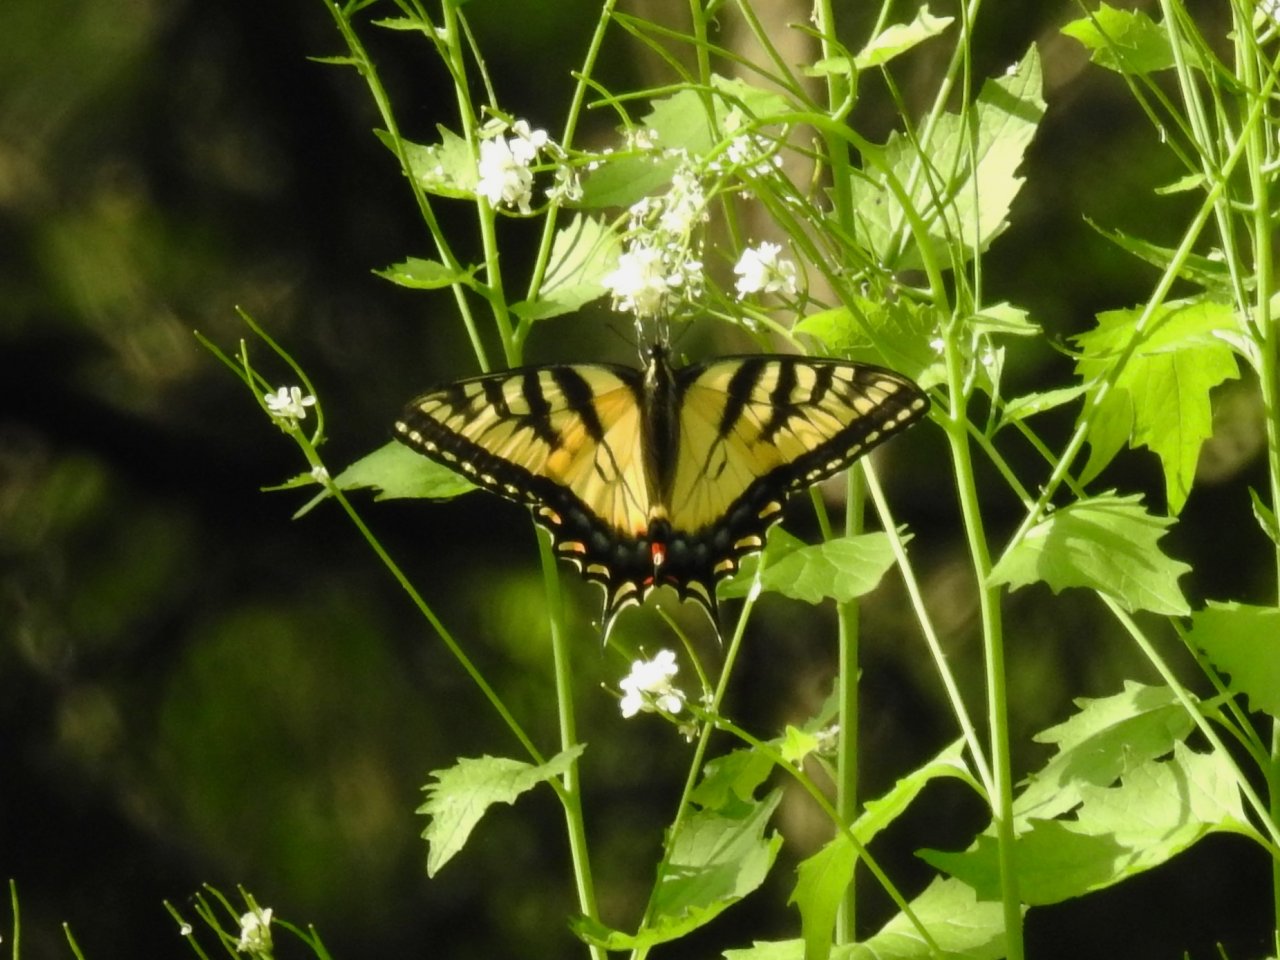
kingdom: Animalia
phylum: Arthropoda
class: Insecta
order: Lepidoptera
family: Papilionidae
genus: Pterourus
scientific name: Pterourus glaucus
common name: Eastern Tiger Swallowtail
